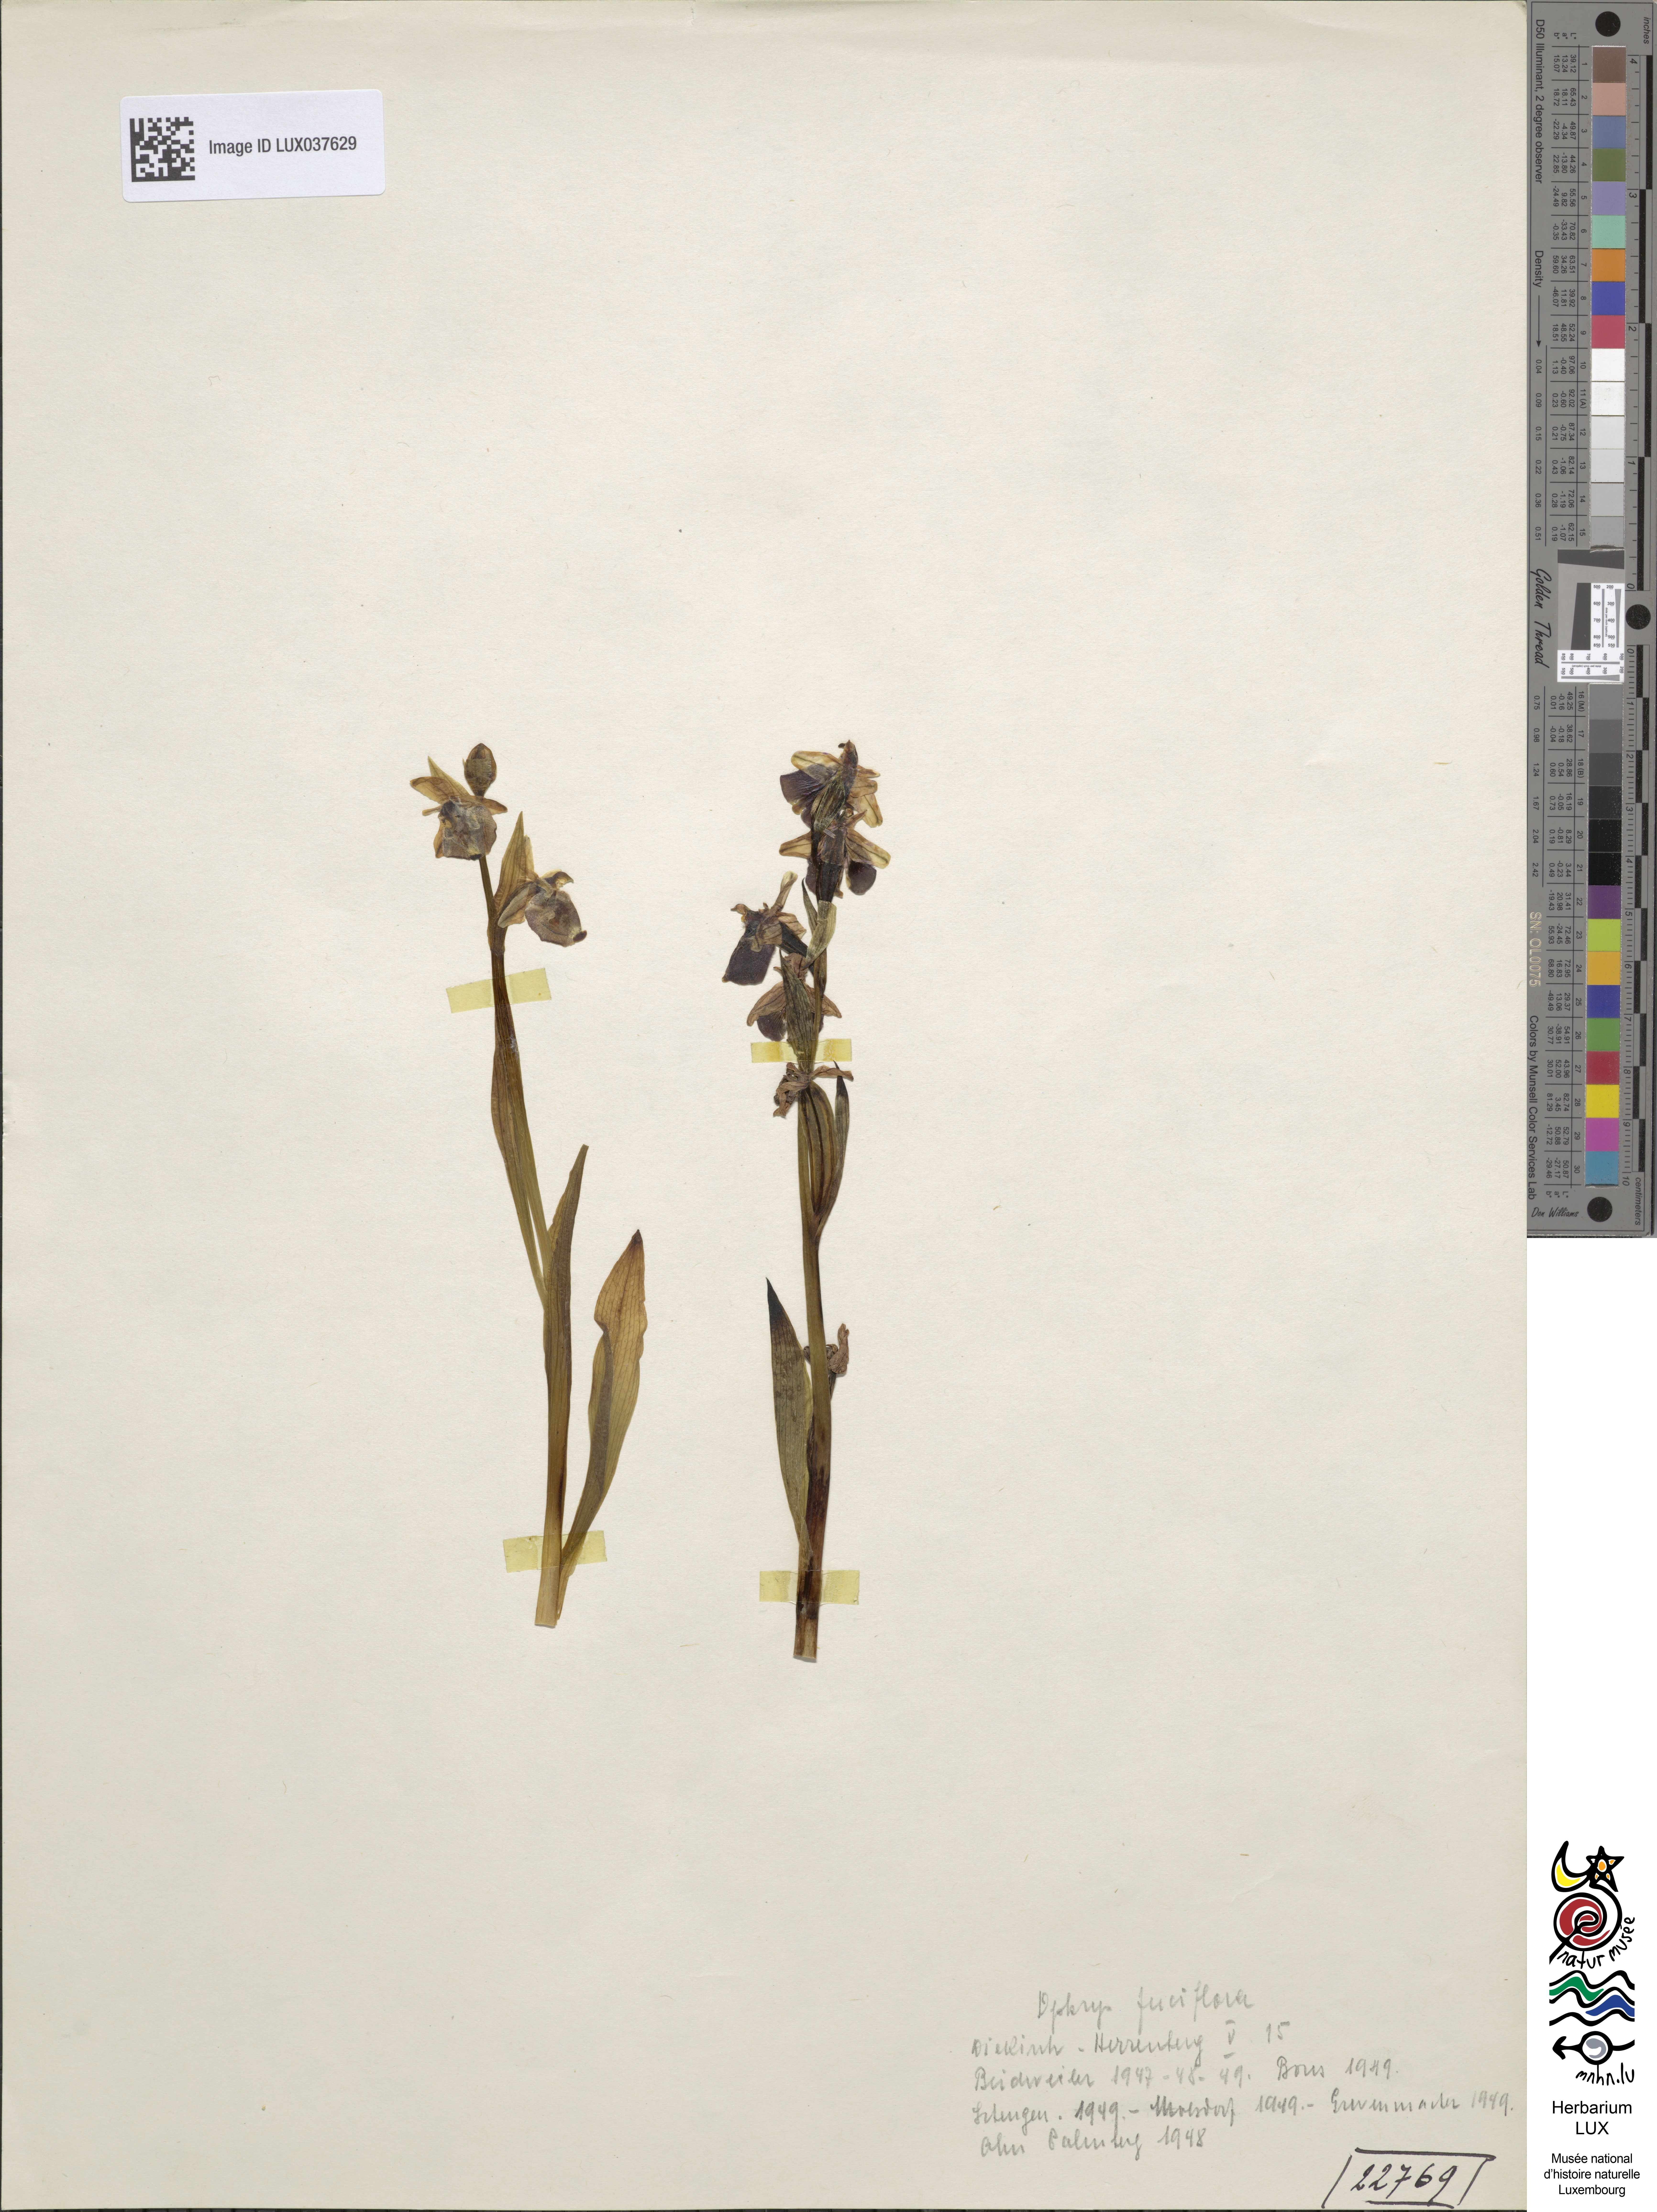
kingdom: Plantae
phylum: Tracheophyta
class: Liliopsida
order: Asparagales
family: Orchidaceae
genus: Ophrys
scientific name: Ophrys holosericea
